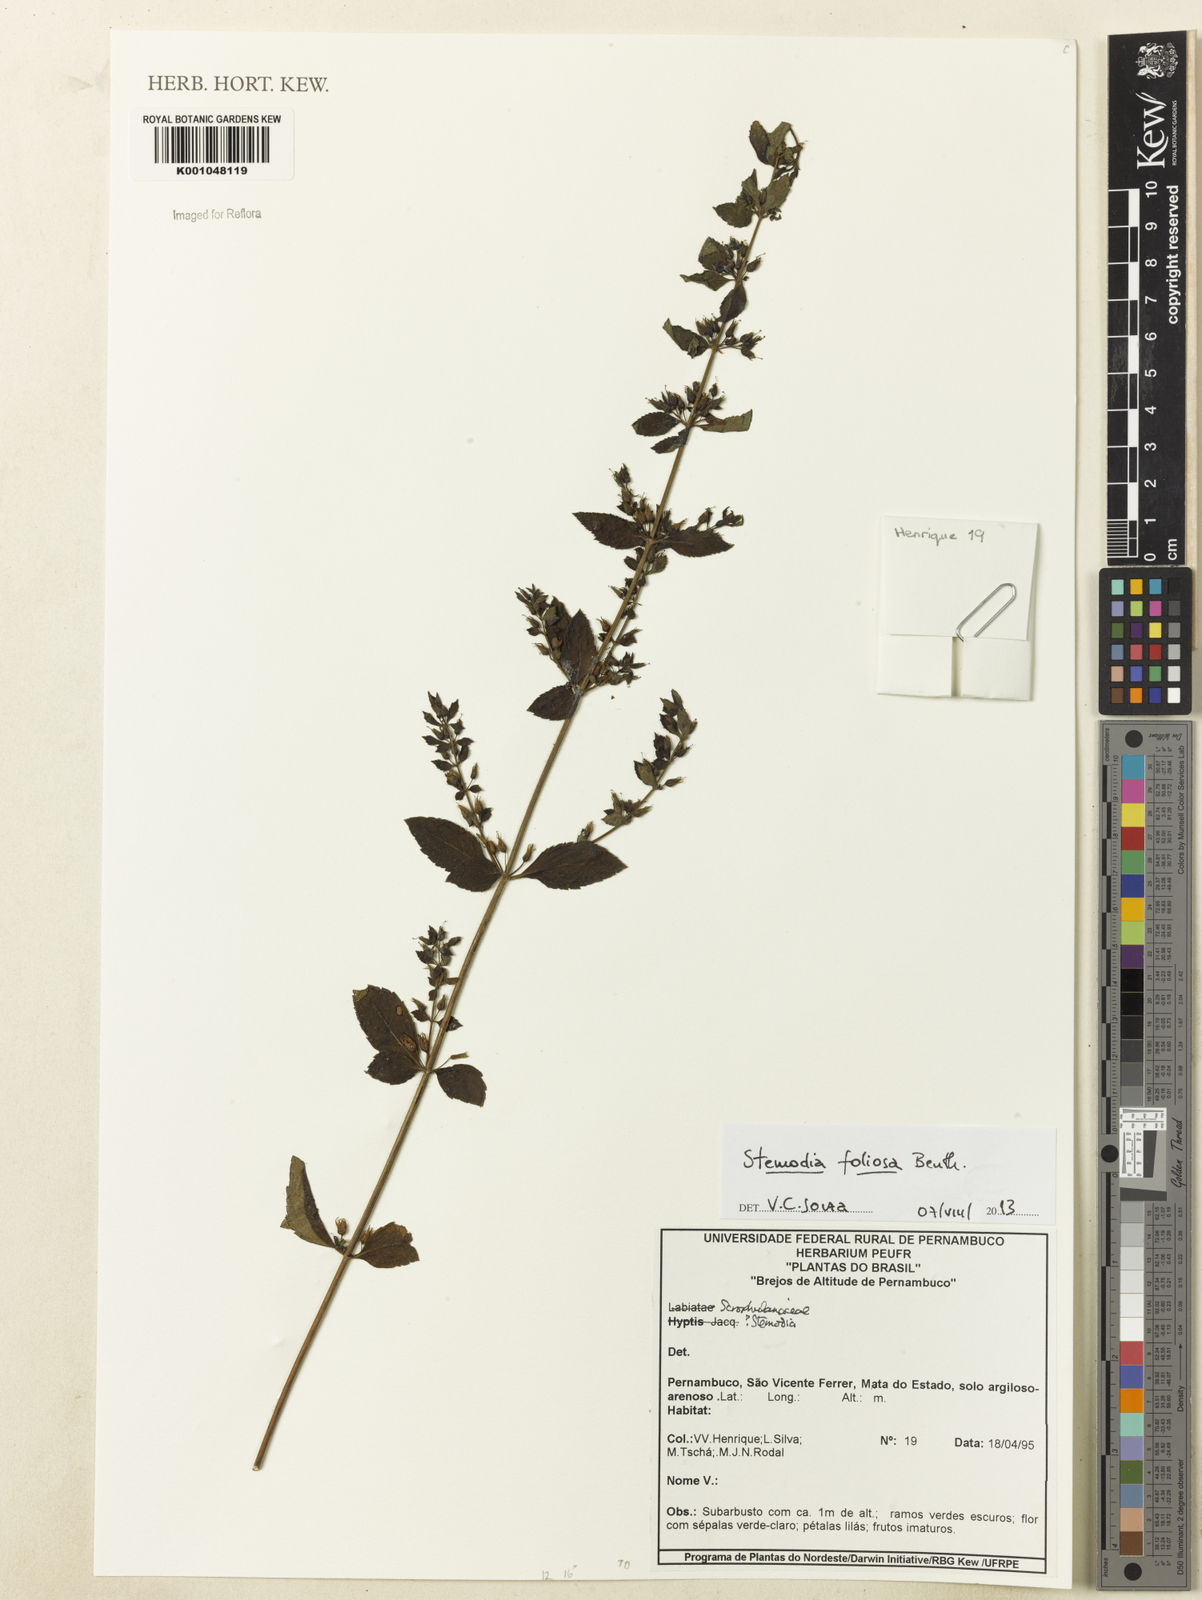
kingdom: Plantae
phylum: Tracheophyta
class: Magnoliopsida
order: Lamiales
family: Plantaginaceae
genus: Stemodia
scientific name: Stemodia foliosa
